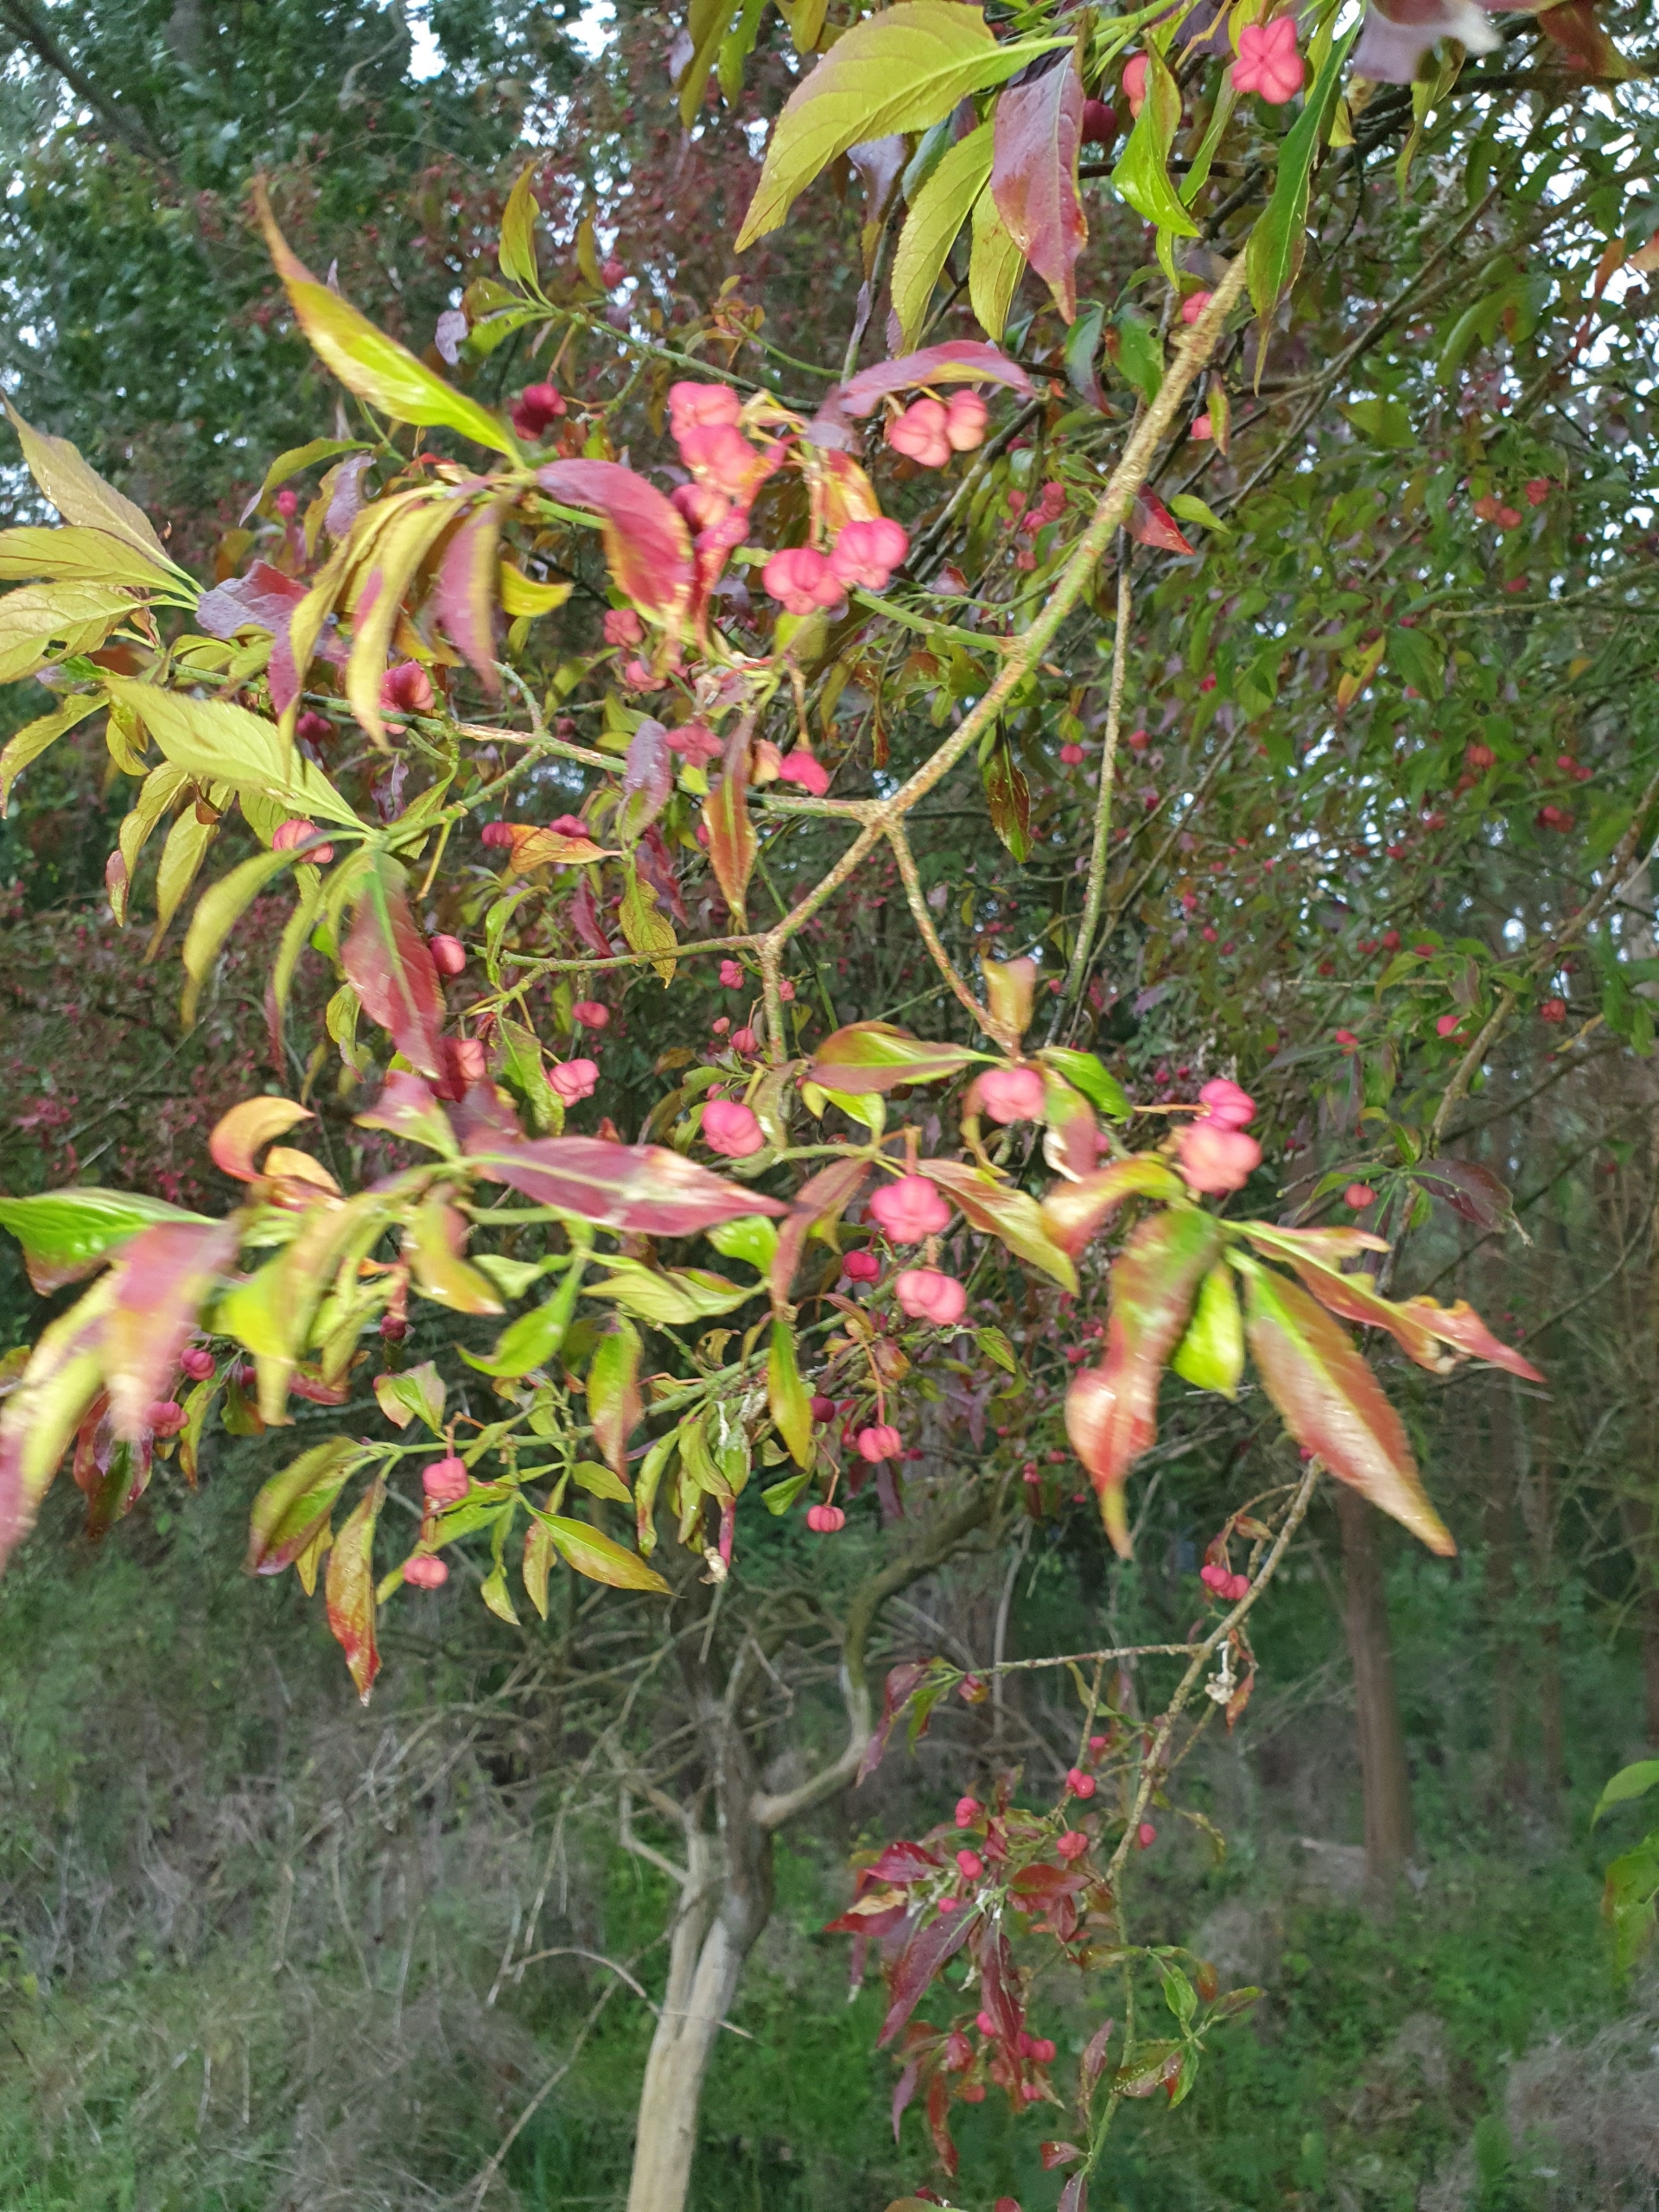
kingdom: Plantae
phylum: Tracheophyta
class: Magnoliopsida
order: Celastrales
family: Celastraceae
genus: Euonymus
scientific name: Euonymus europaeus
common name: Benved
